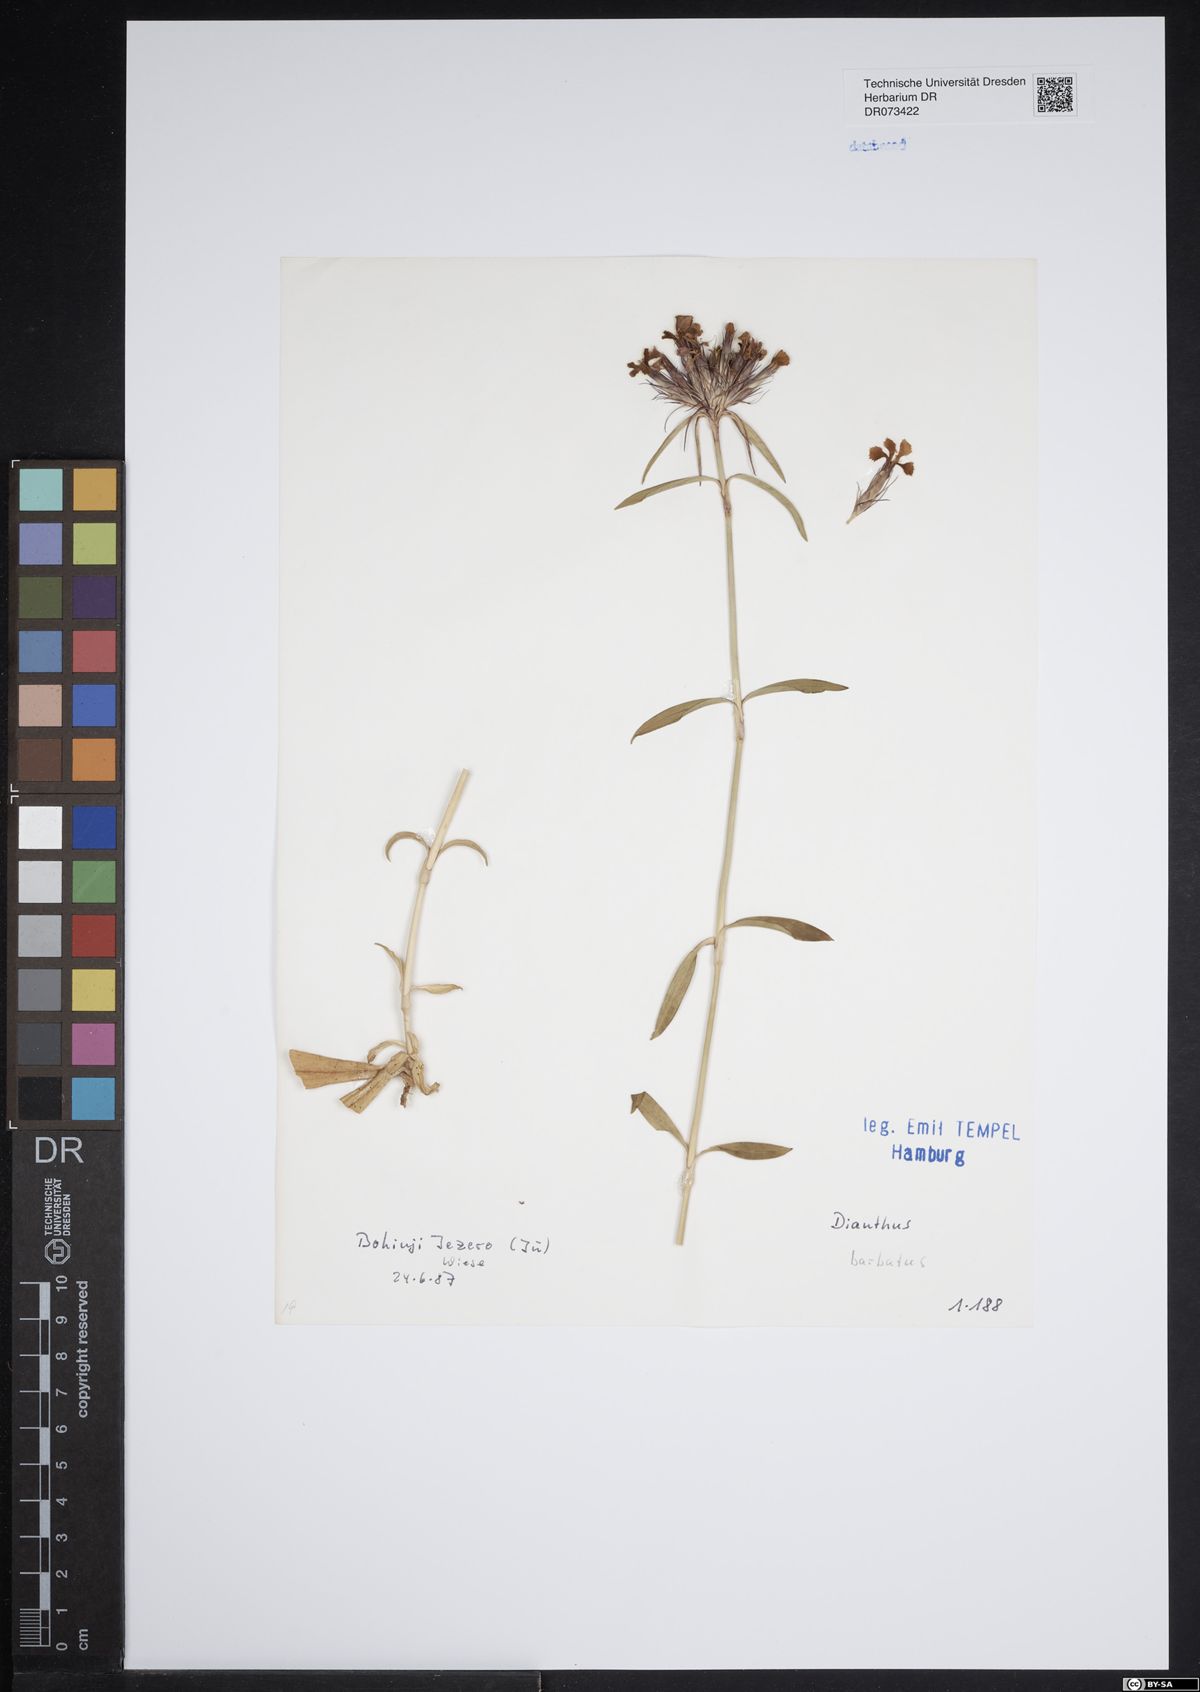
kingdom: Plantae
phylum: Tracheophyta
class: Magnoliopsida
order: Caryophyllales
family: Caryophyllaceae
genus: Dianthus
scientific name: Dianthus barbatus
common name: Sweet-william
